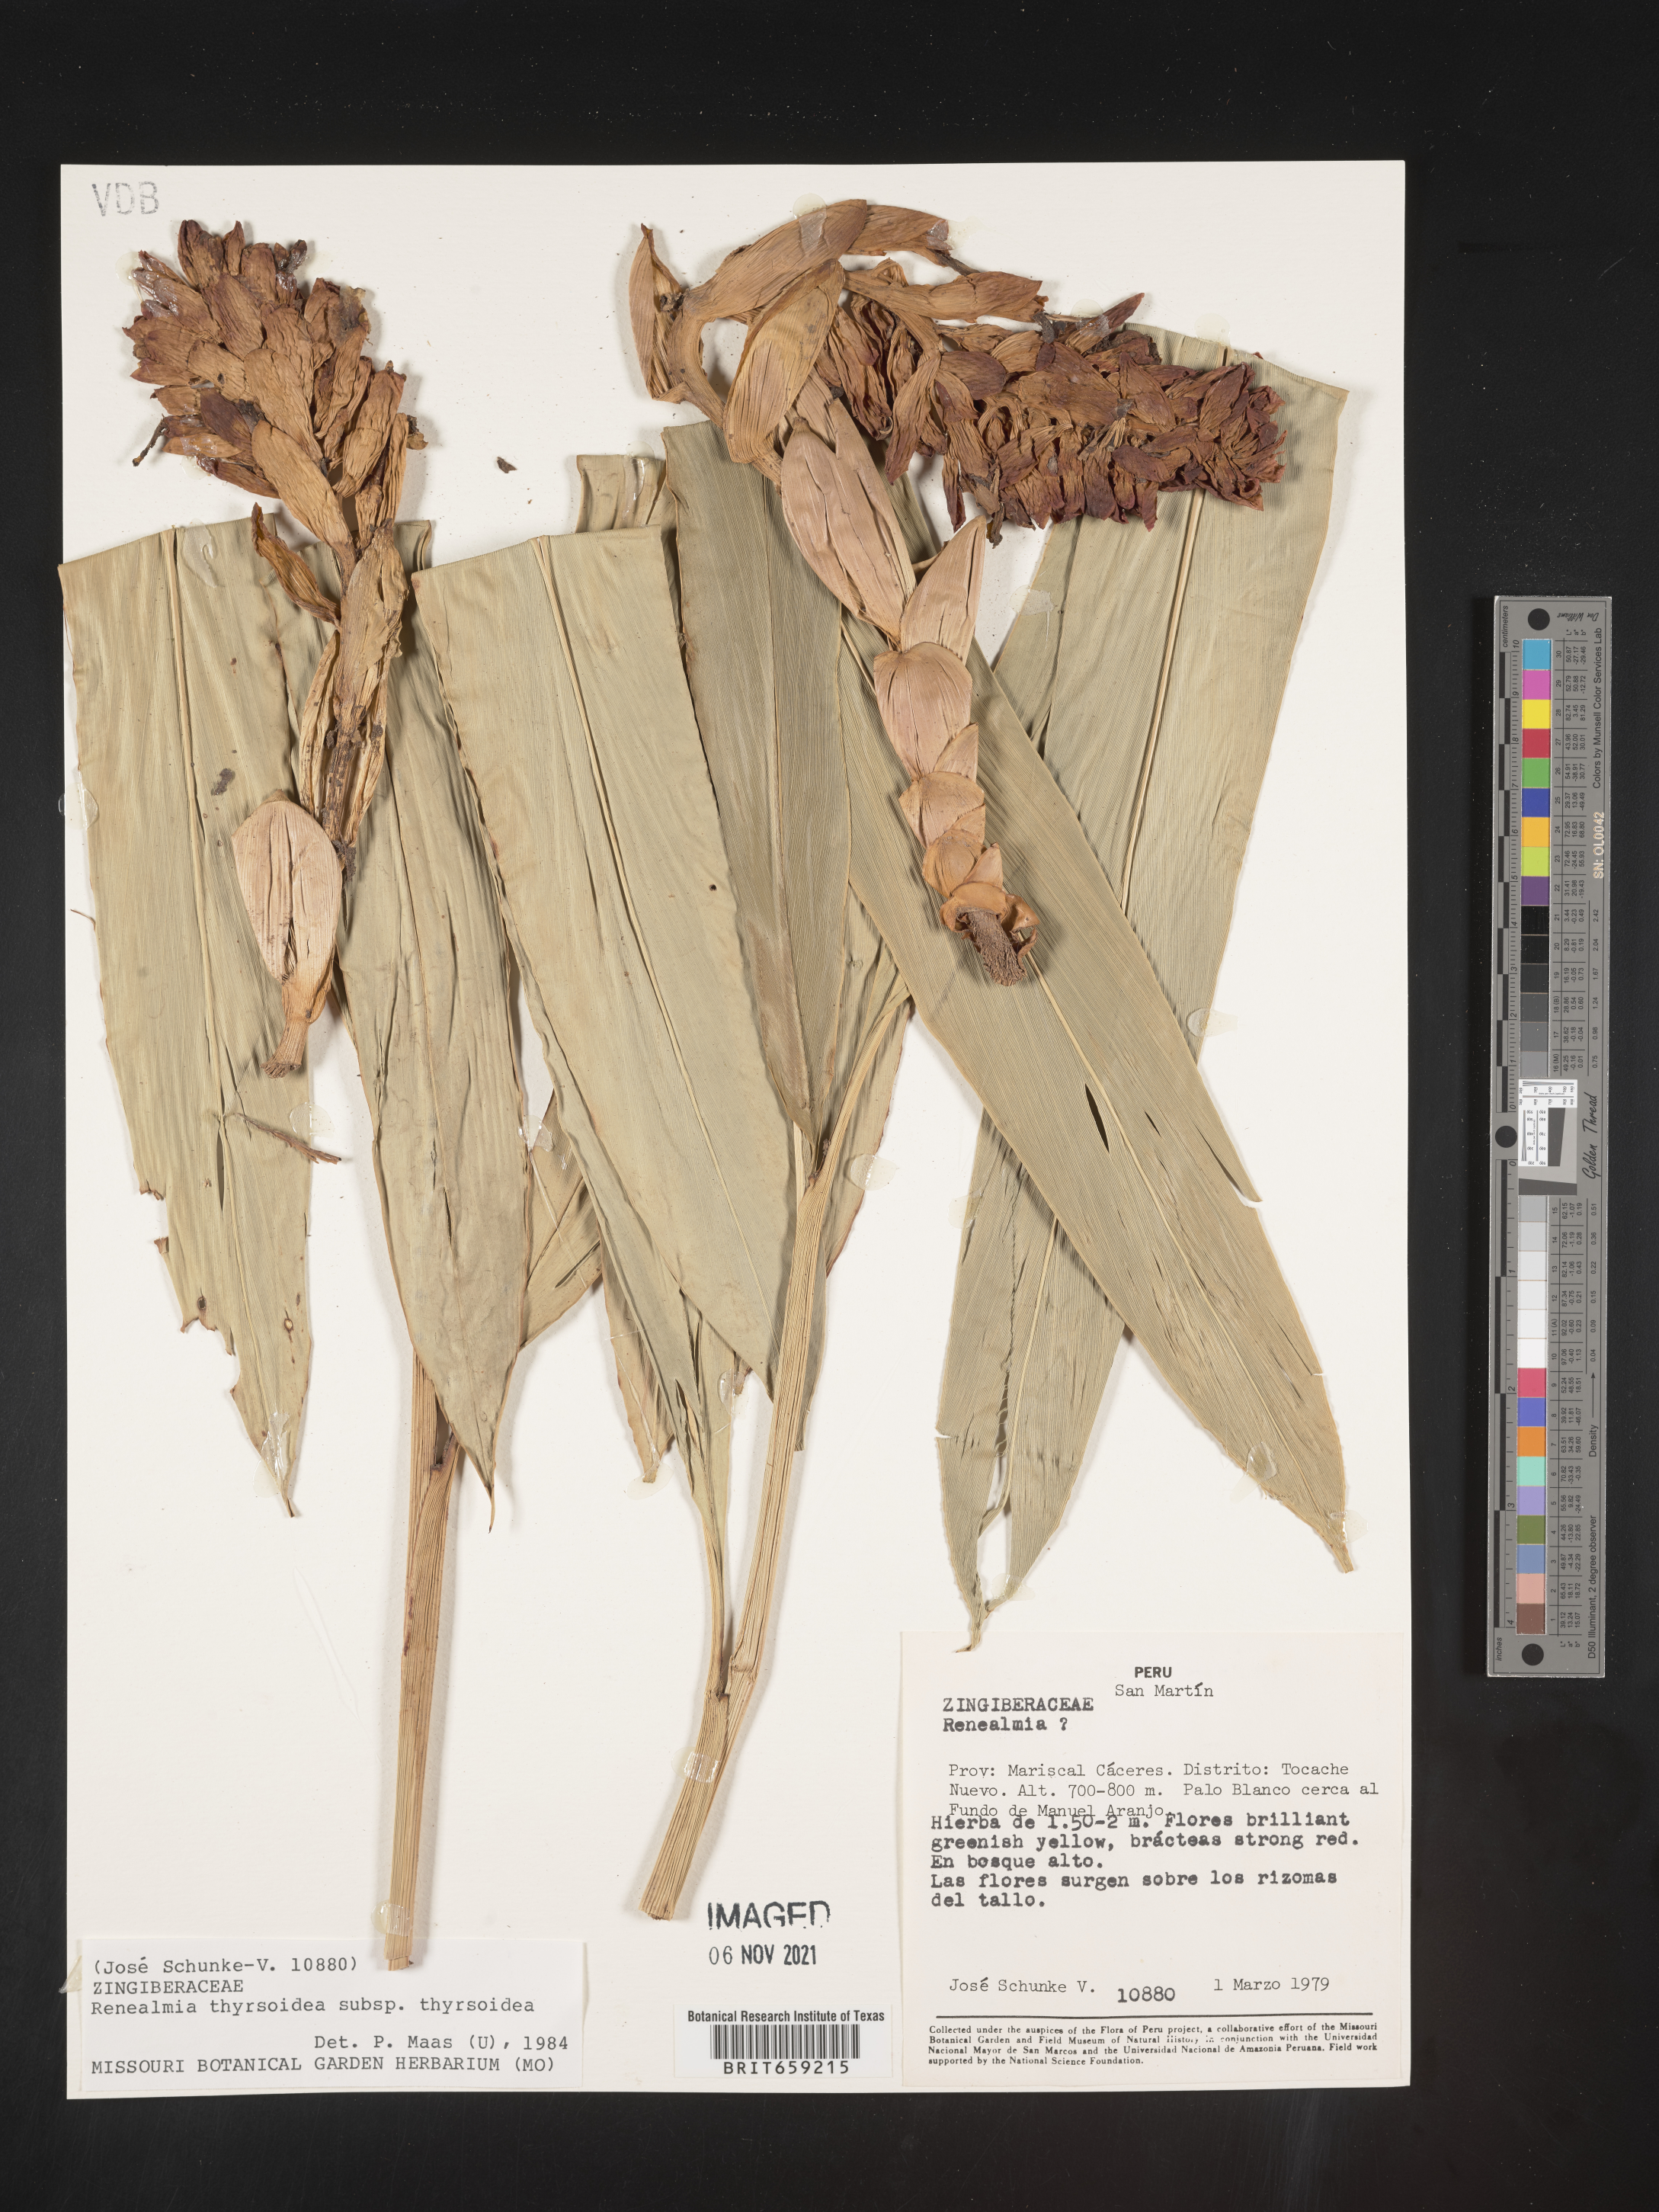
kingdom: Plantae
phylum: Tracheophyta
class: Liliopsida
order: Zingiberales
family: Zingiberaceae
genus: Renealmia
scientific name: Renealmia
